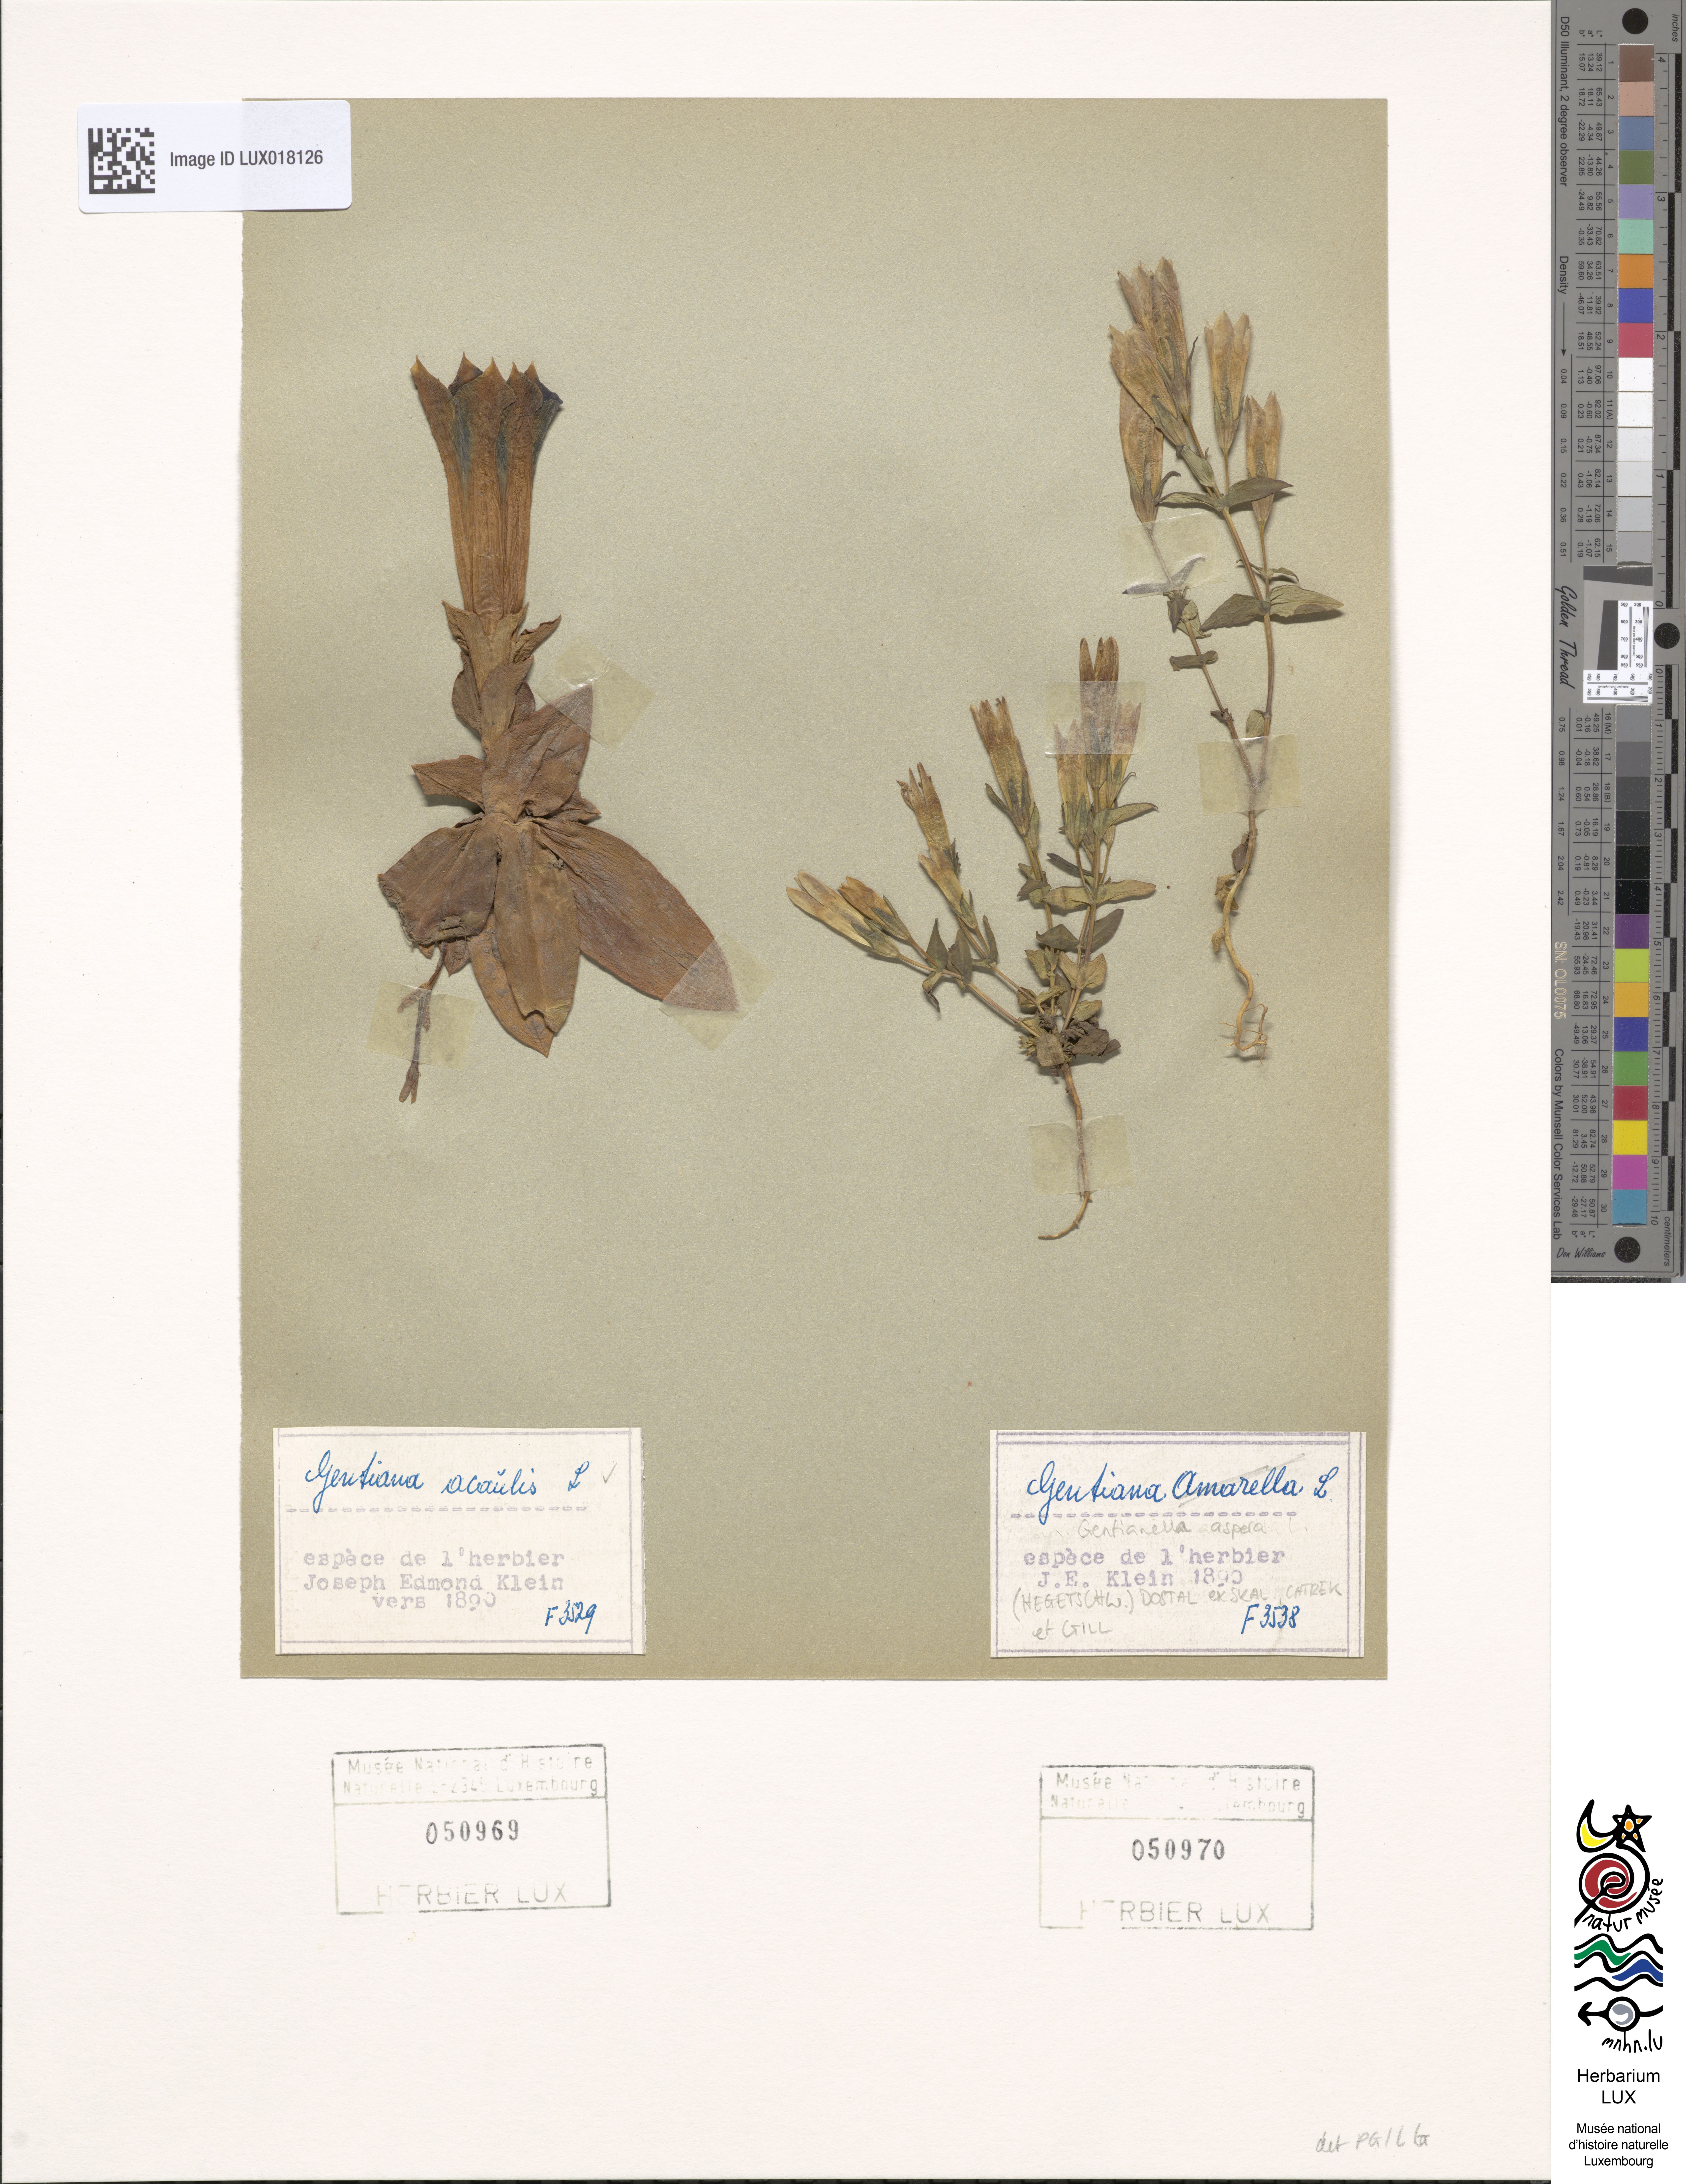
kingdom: Plantae
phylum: Tracheophyta
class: Magnoliopsida
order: Gentianales
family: Gentianaceae
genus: Gentiana
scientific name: Gentiana acaulis
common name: Trumpet gentian
